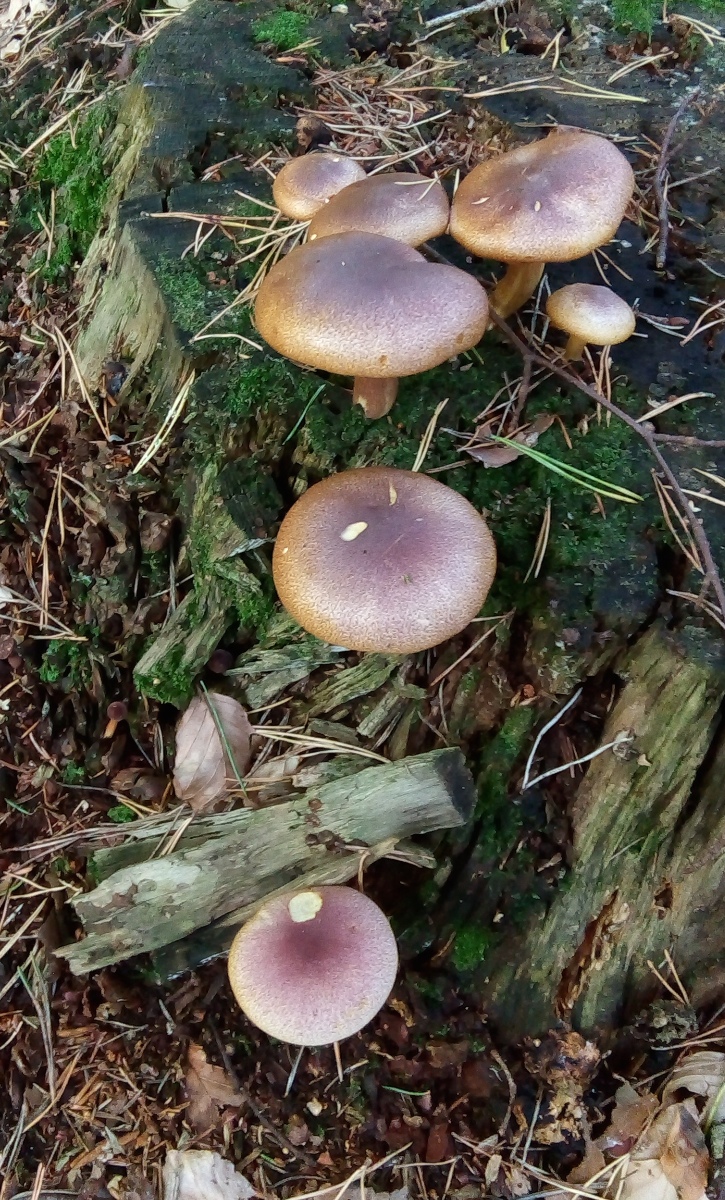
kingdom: Fungi
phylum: Basidiomycota
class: Agaricomycetes
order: Agaricales
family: Tricholomataceae
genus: Tricholomopsis
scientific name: Tricholomopsis rutilans
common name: purpur-væbnerhat
